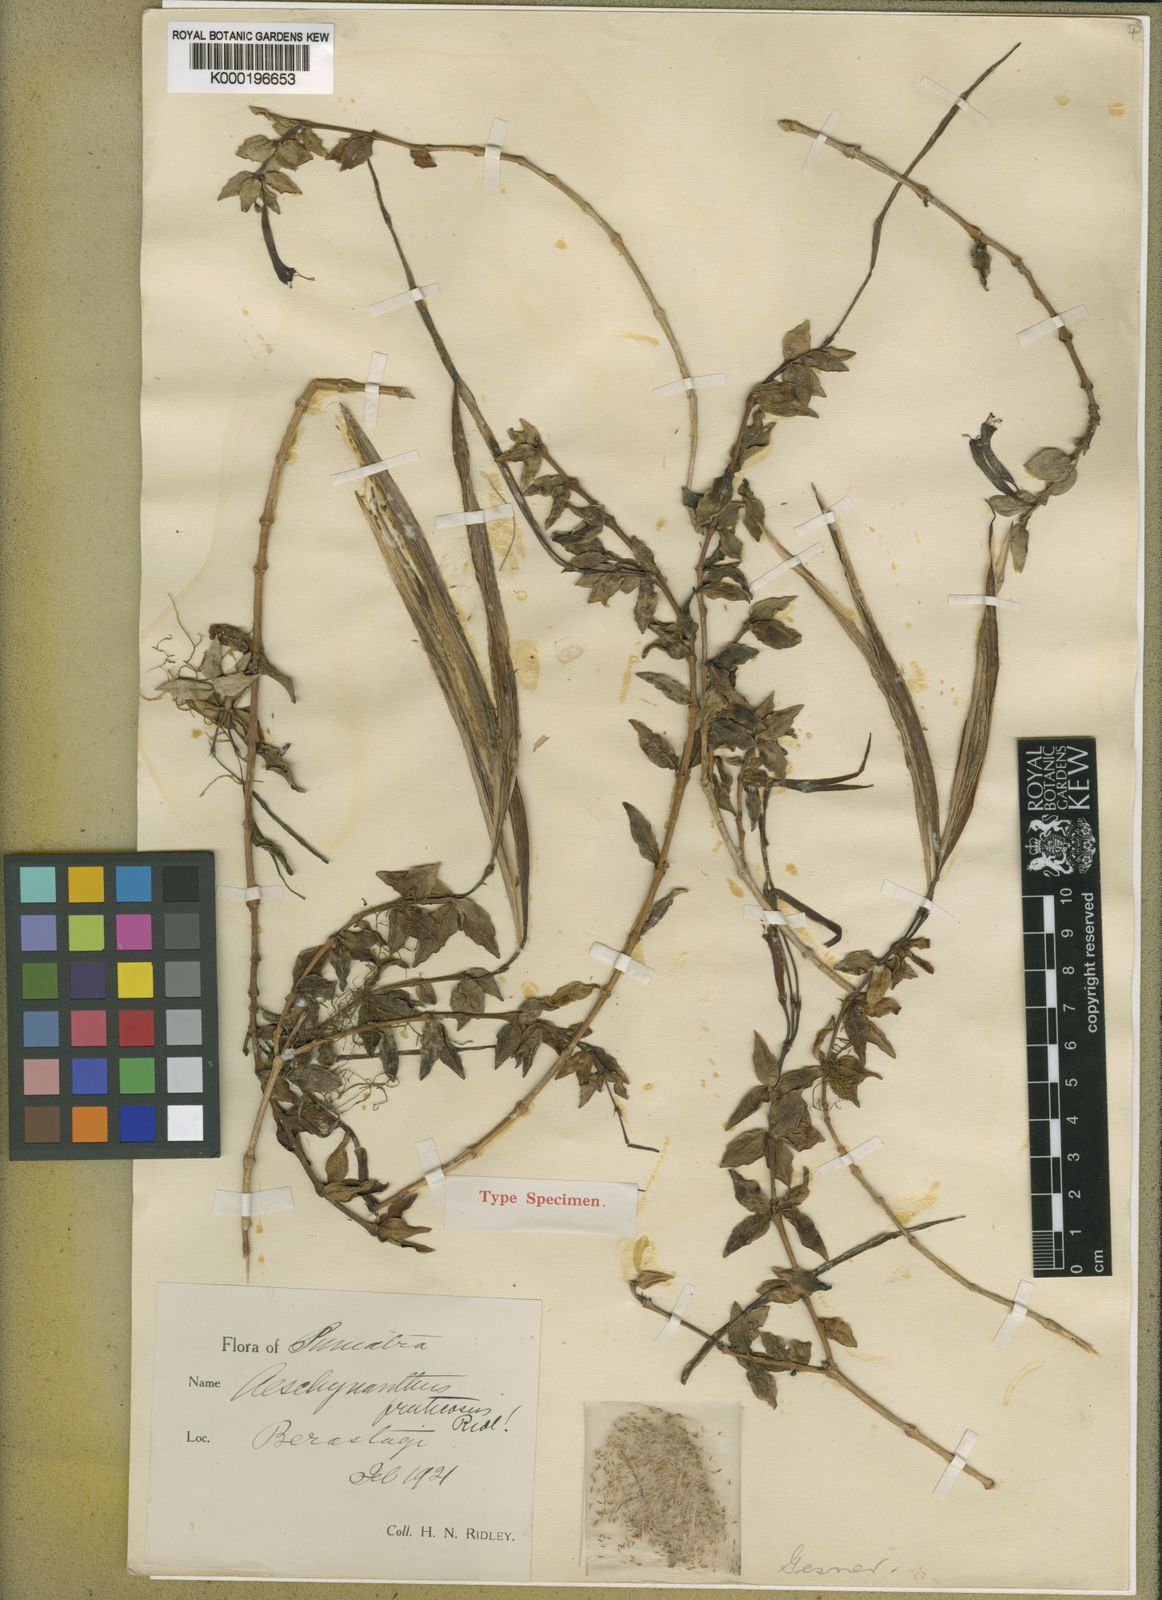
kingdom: Plantae
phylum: Tracheophyta
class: Magnoliopsida
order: Lamiales
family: Gesneriaceae
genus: Aeschynanthus
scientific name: Aeschynanthus fruticosus
